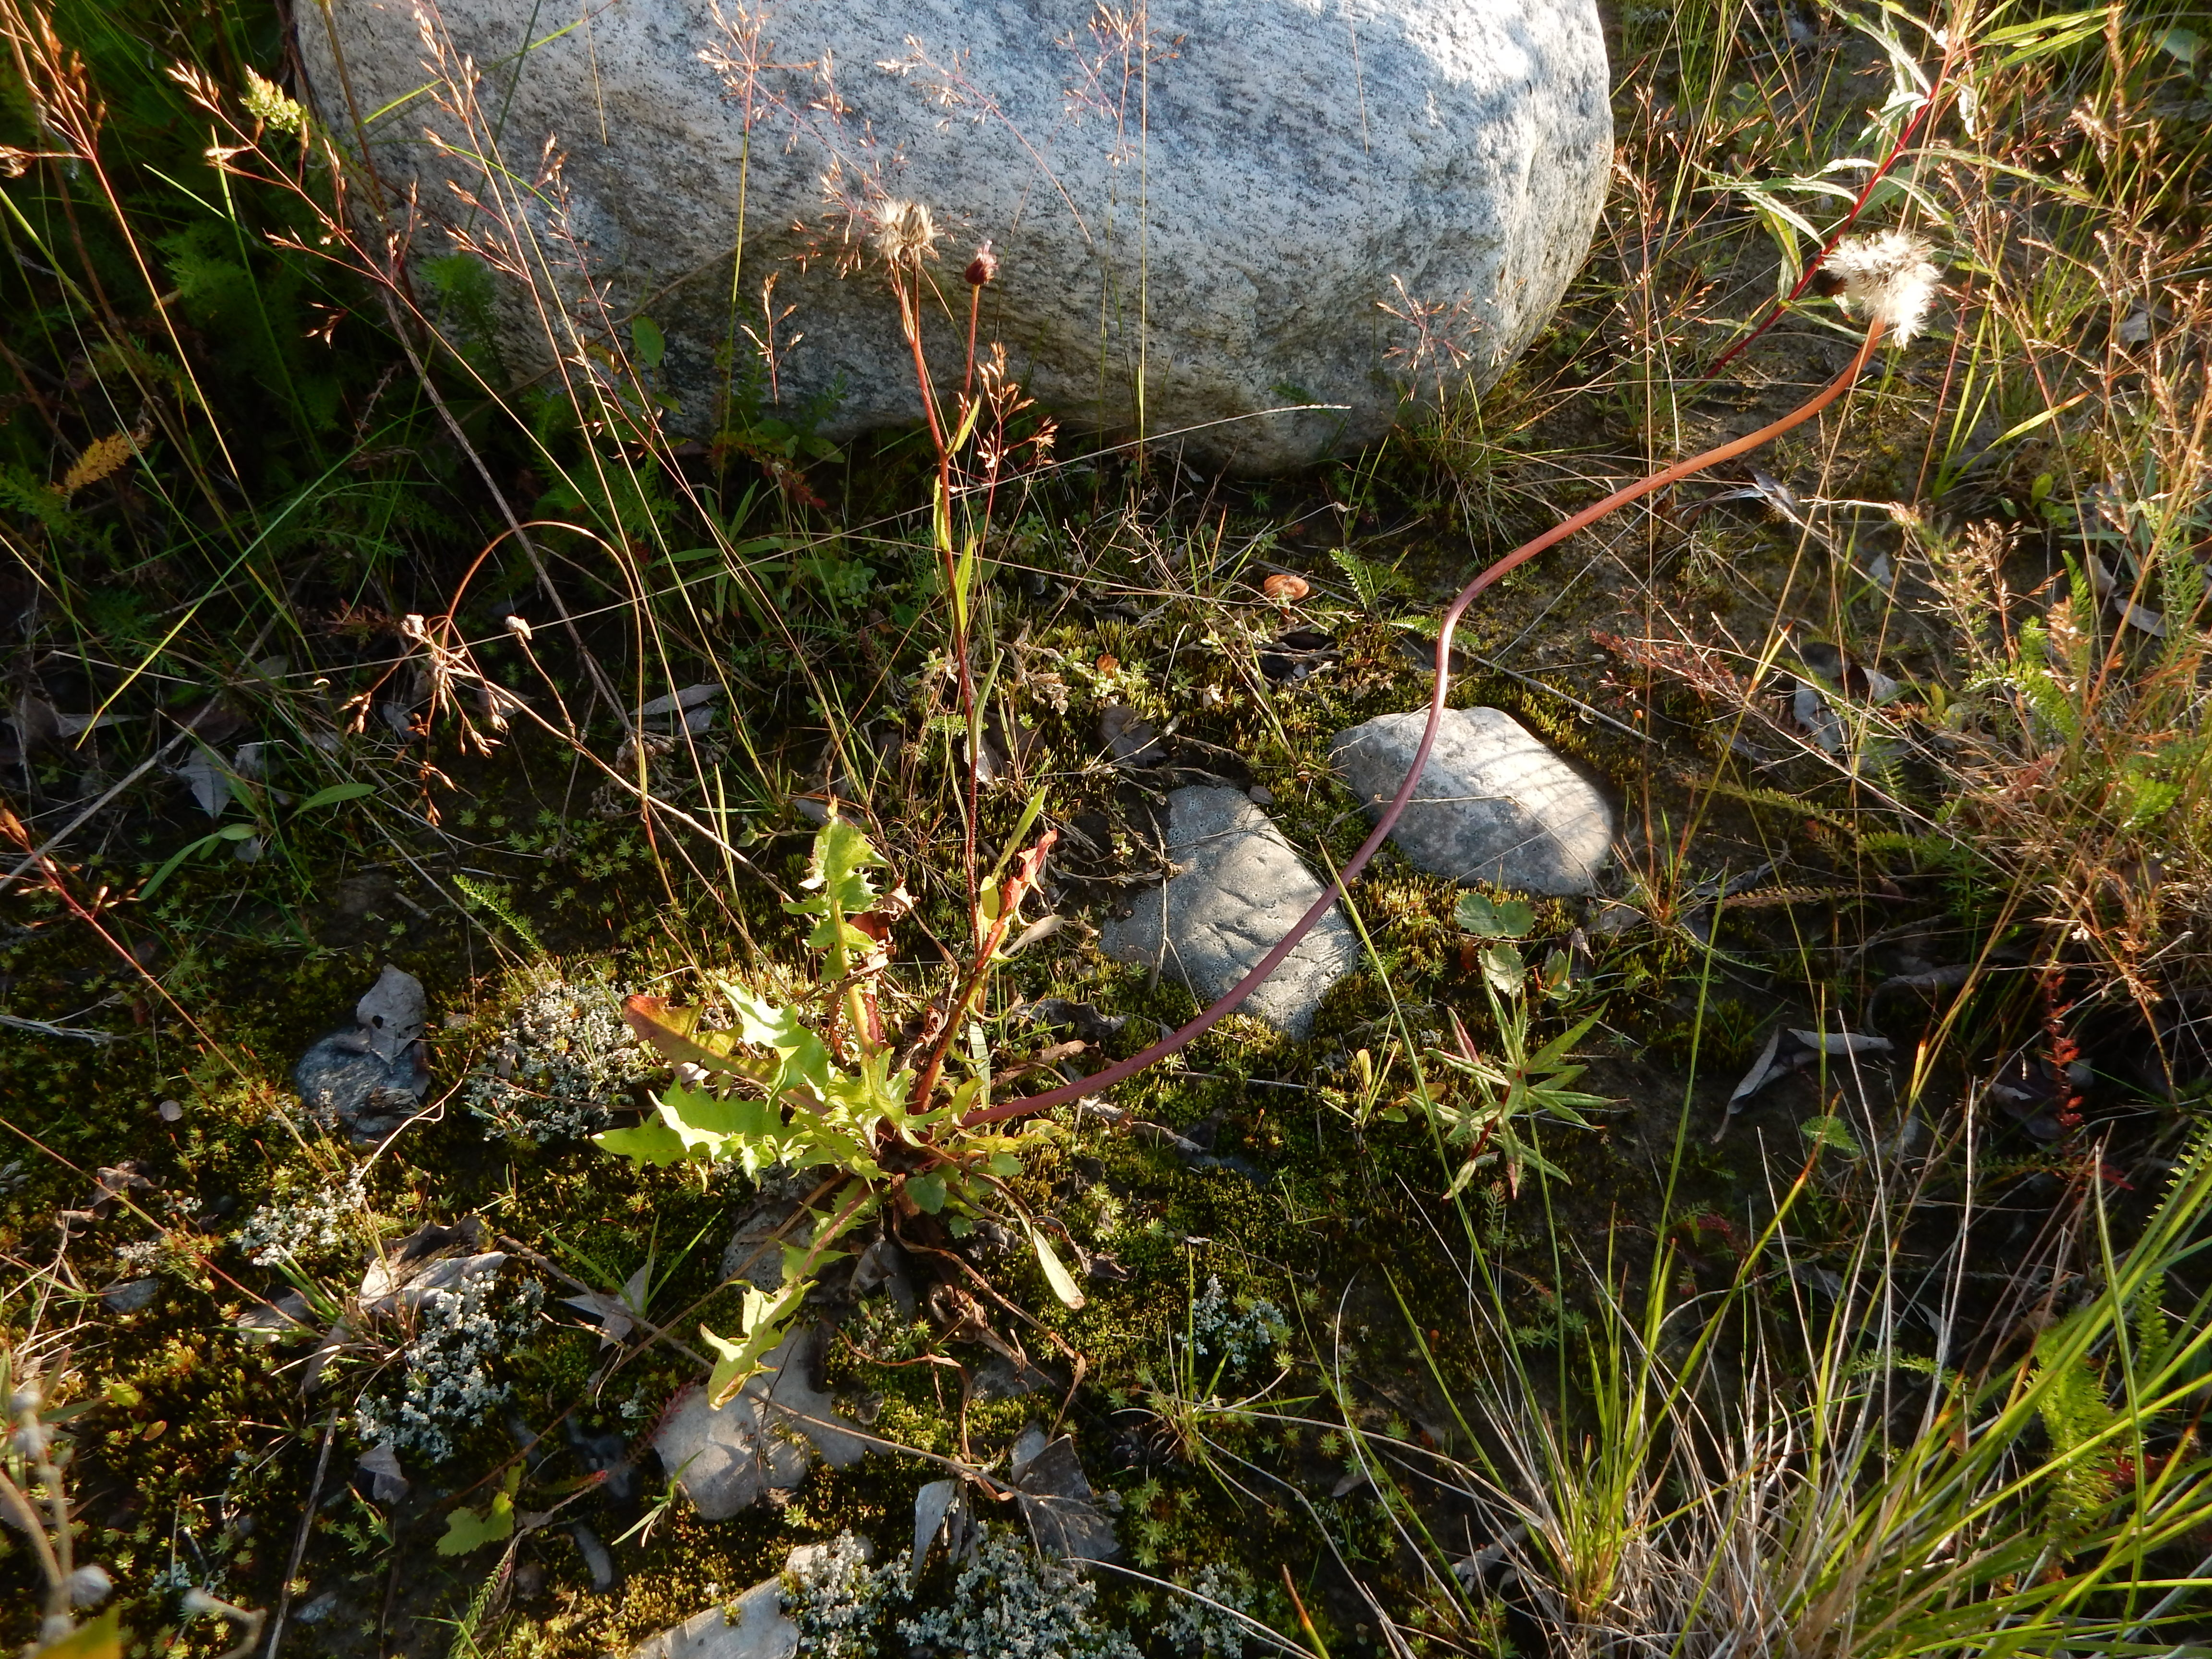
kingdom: Plantae
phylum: Tracheophyta
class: Magnoliopsida
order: Asterales
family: Asteraceae
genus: Taraxacum
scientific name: Taraxacum tornense
